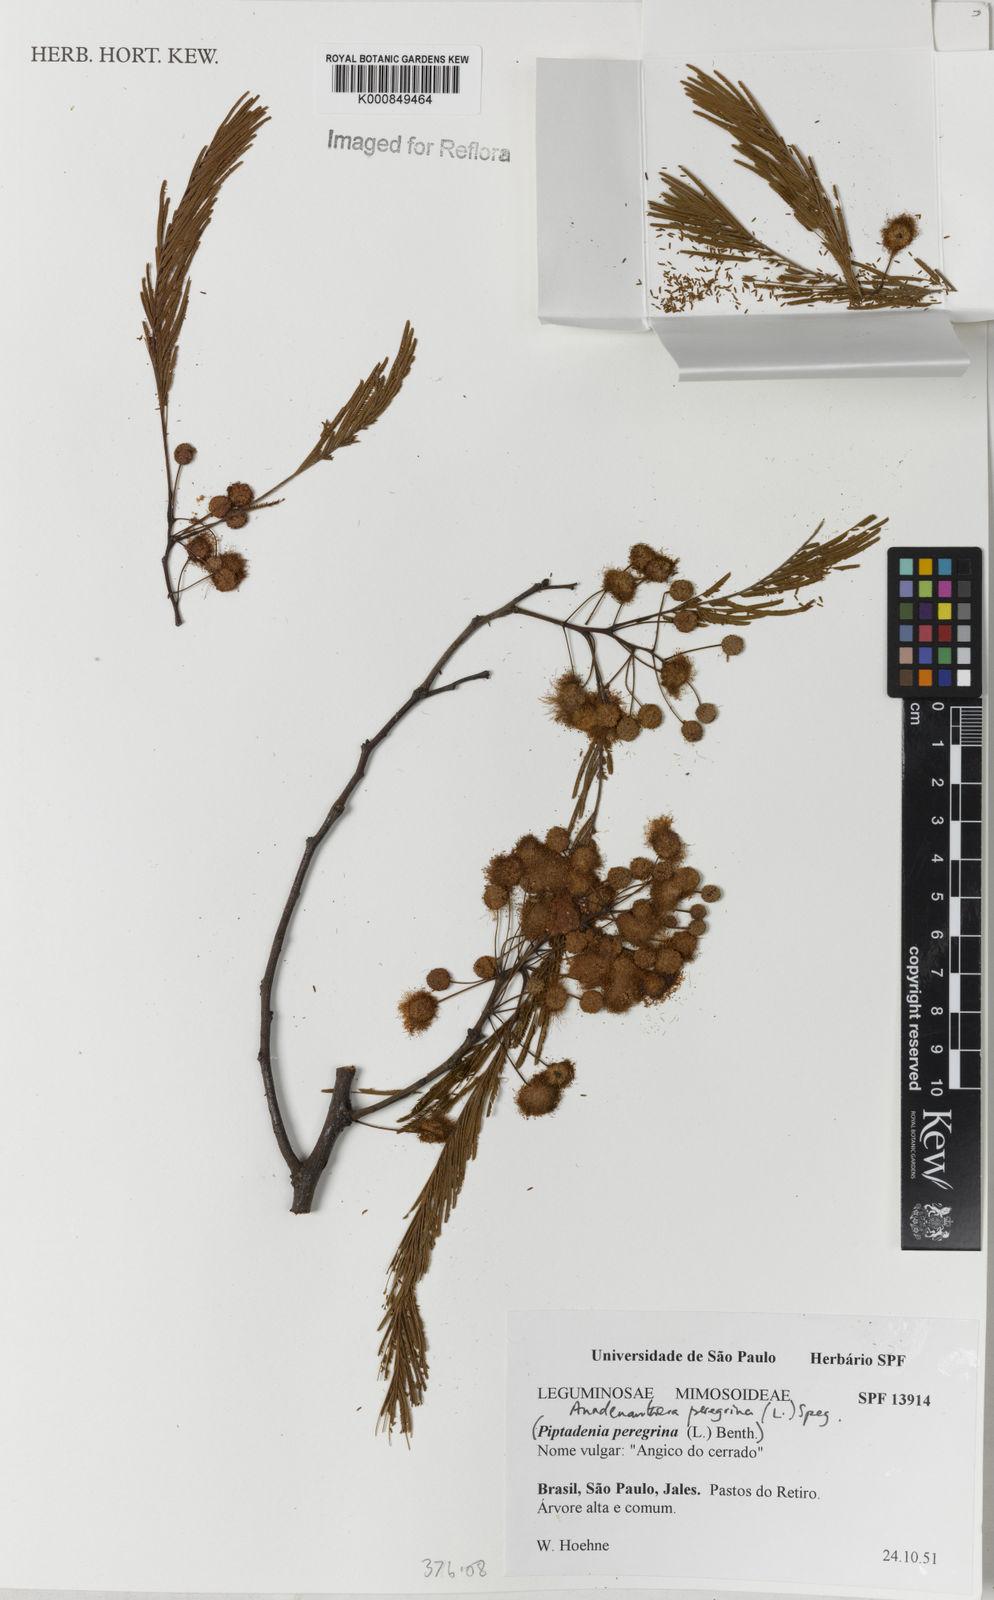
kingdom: Plantae
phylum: Tracheophyta
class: Magnoliopsida
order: Fabales
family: Fabaceae
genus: Anadenanthera
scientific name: Anadenanthera peregrina
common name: Cohoba
